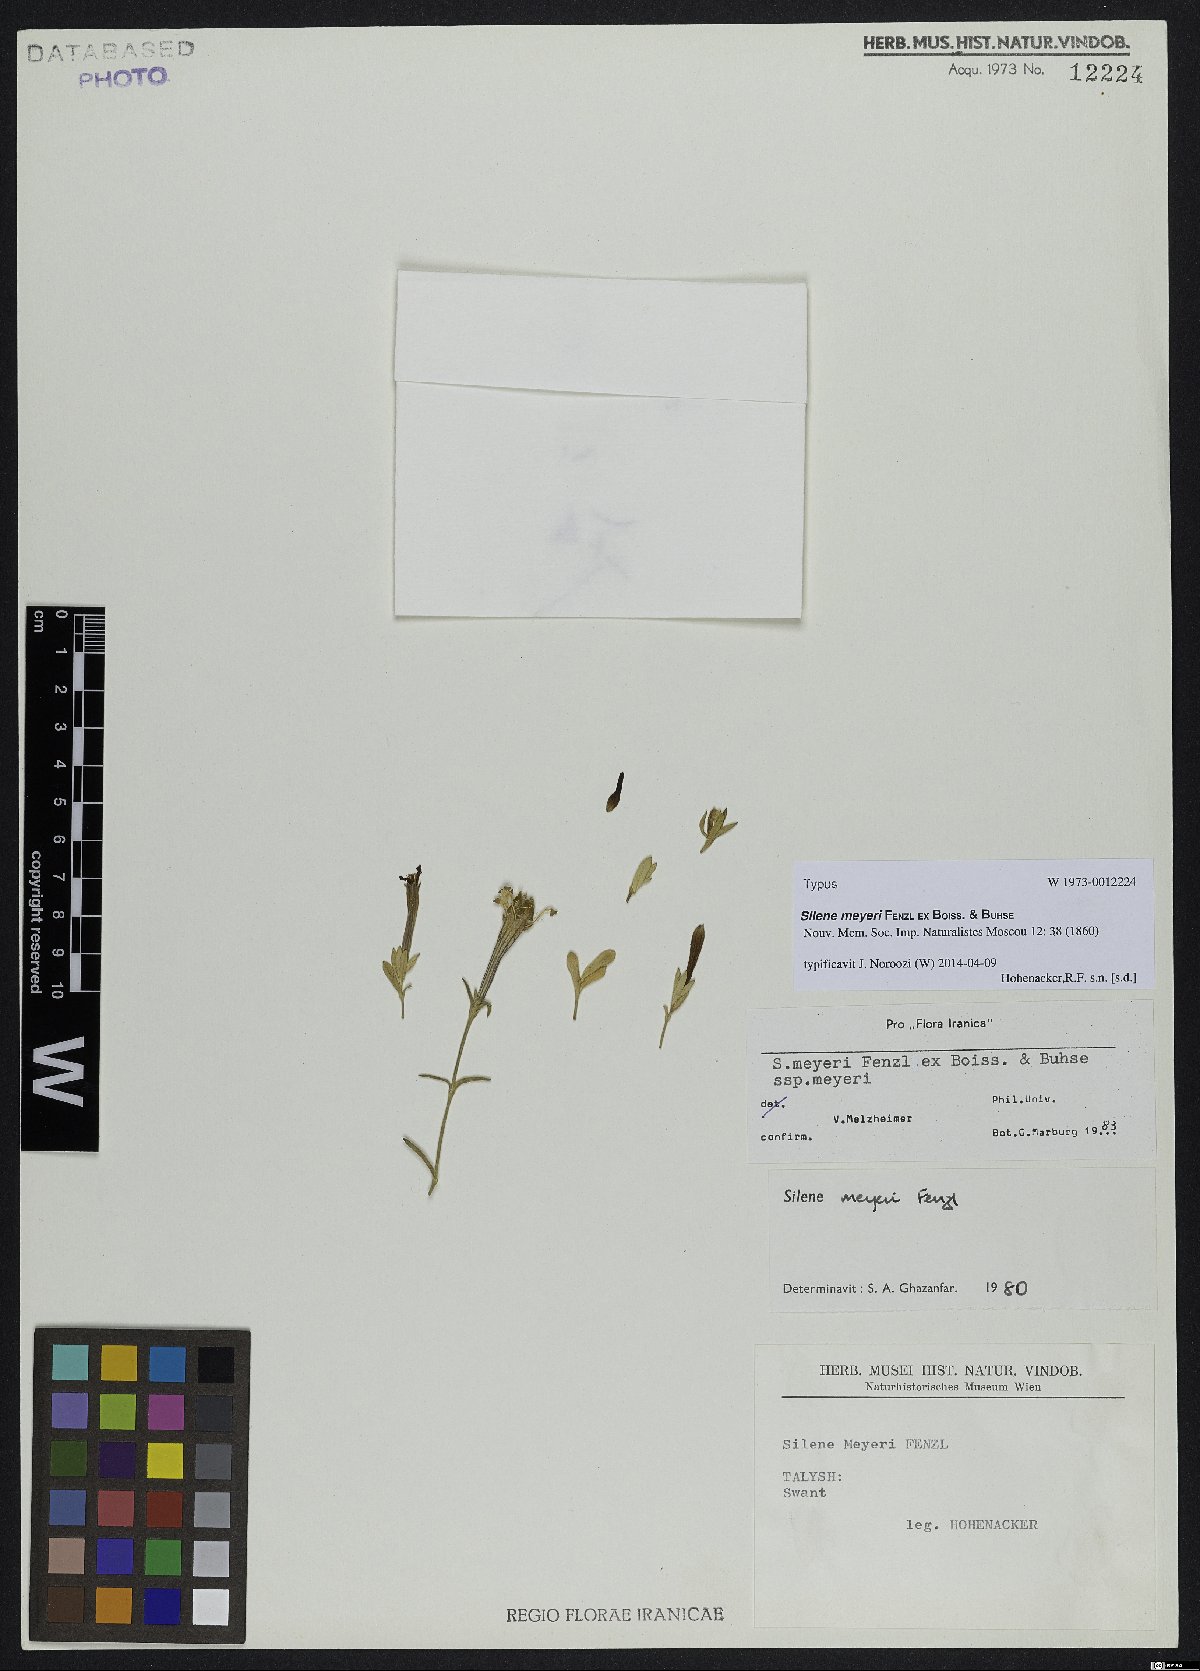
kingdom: Plantae
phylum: Tracheophyta
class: Magnoliopsida
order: Caryophyllales
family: Caryophyllaceae
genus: Silene
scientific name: Silene meyeri
